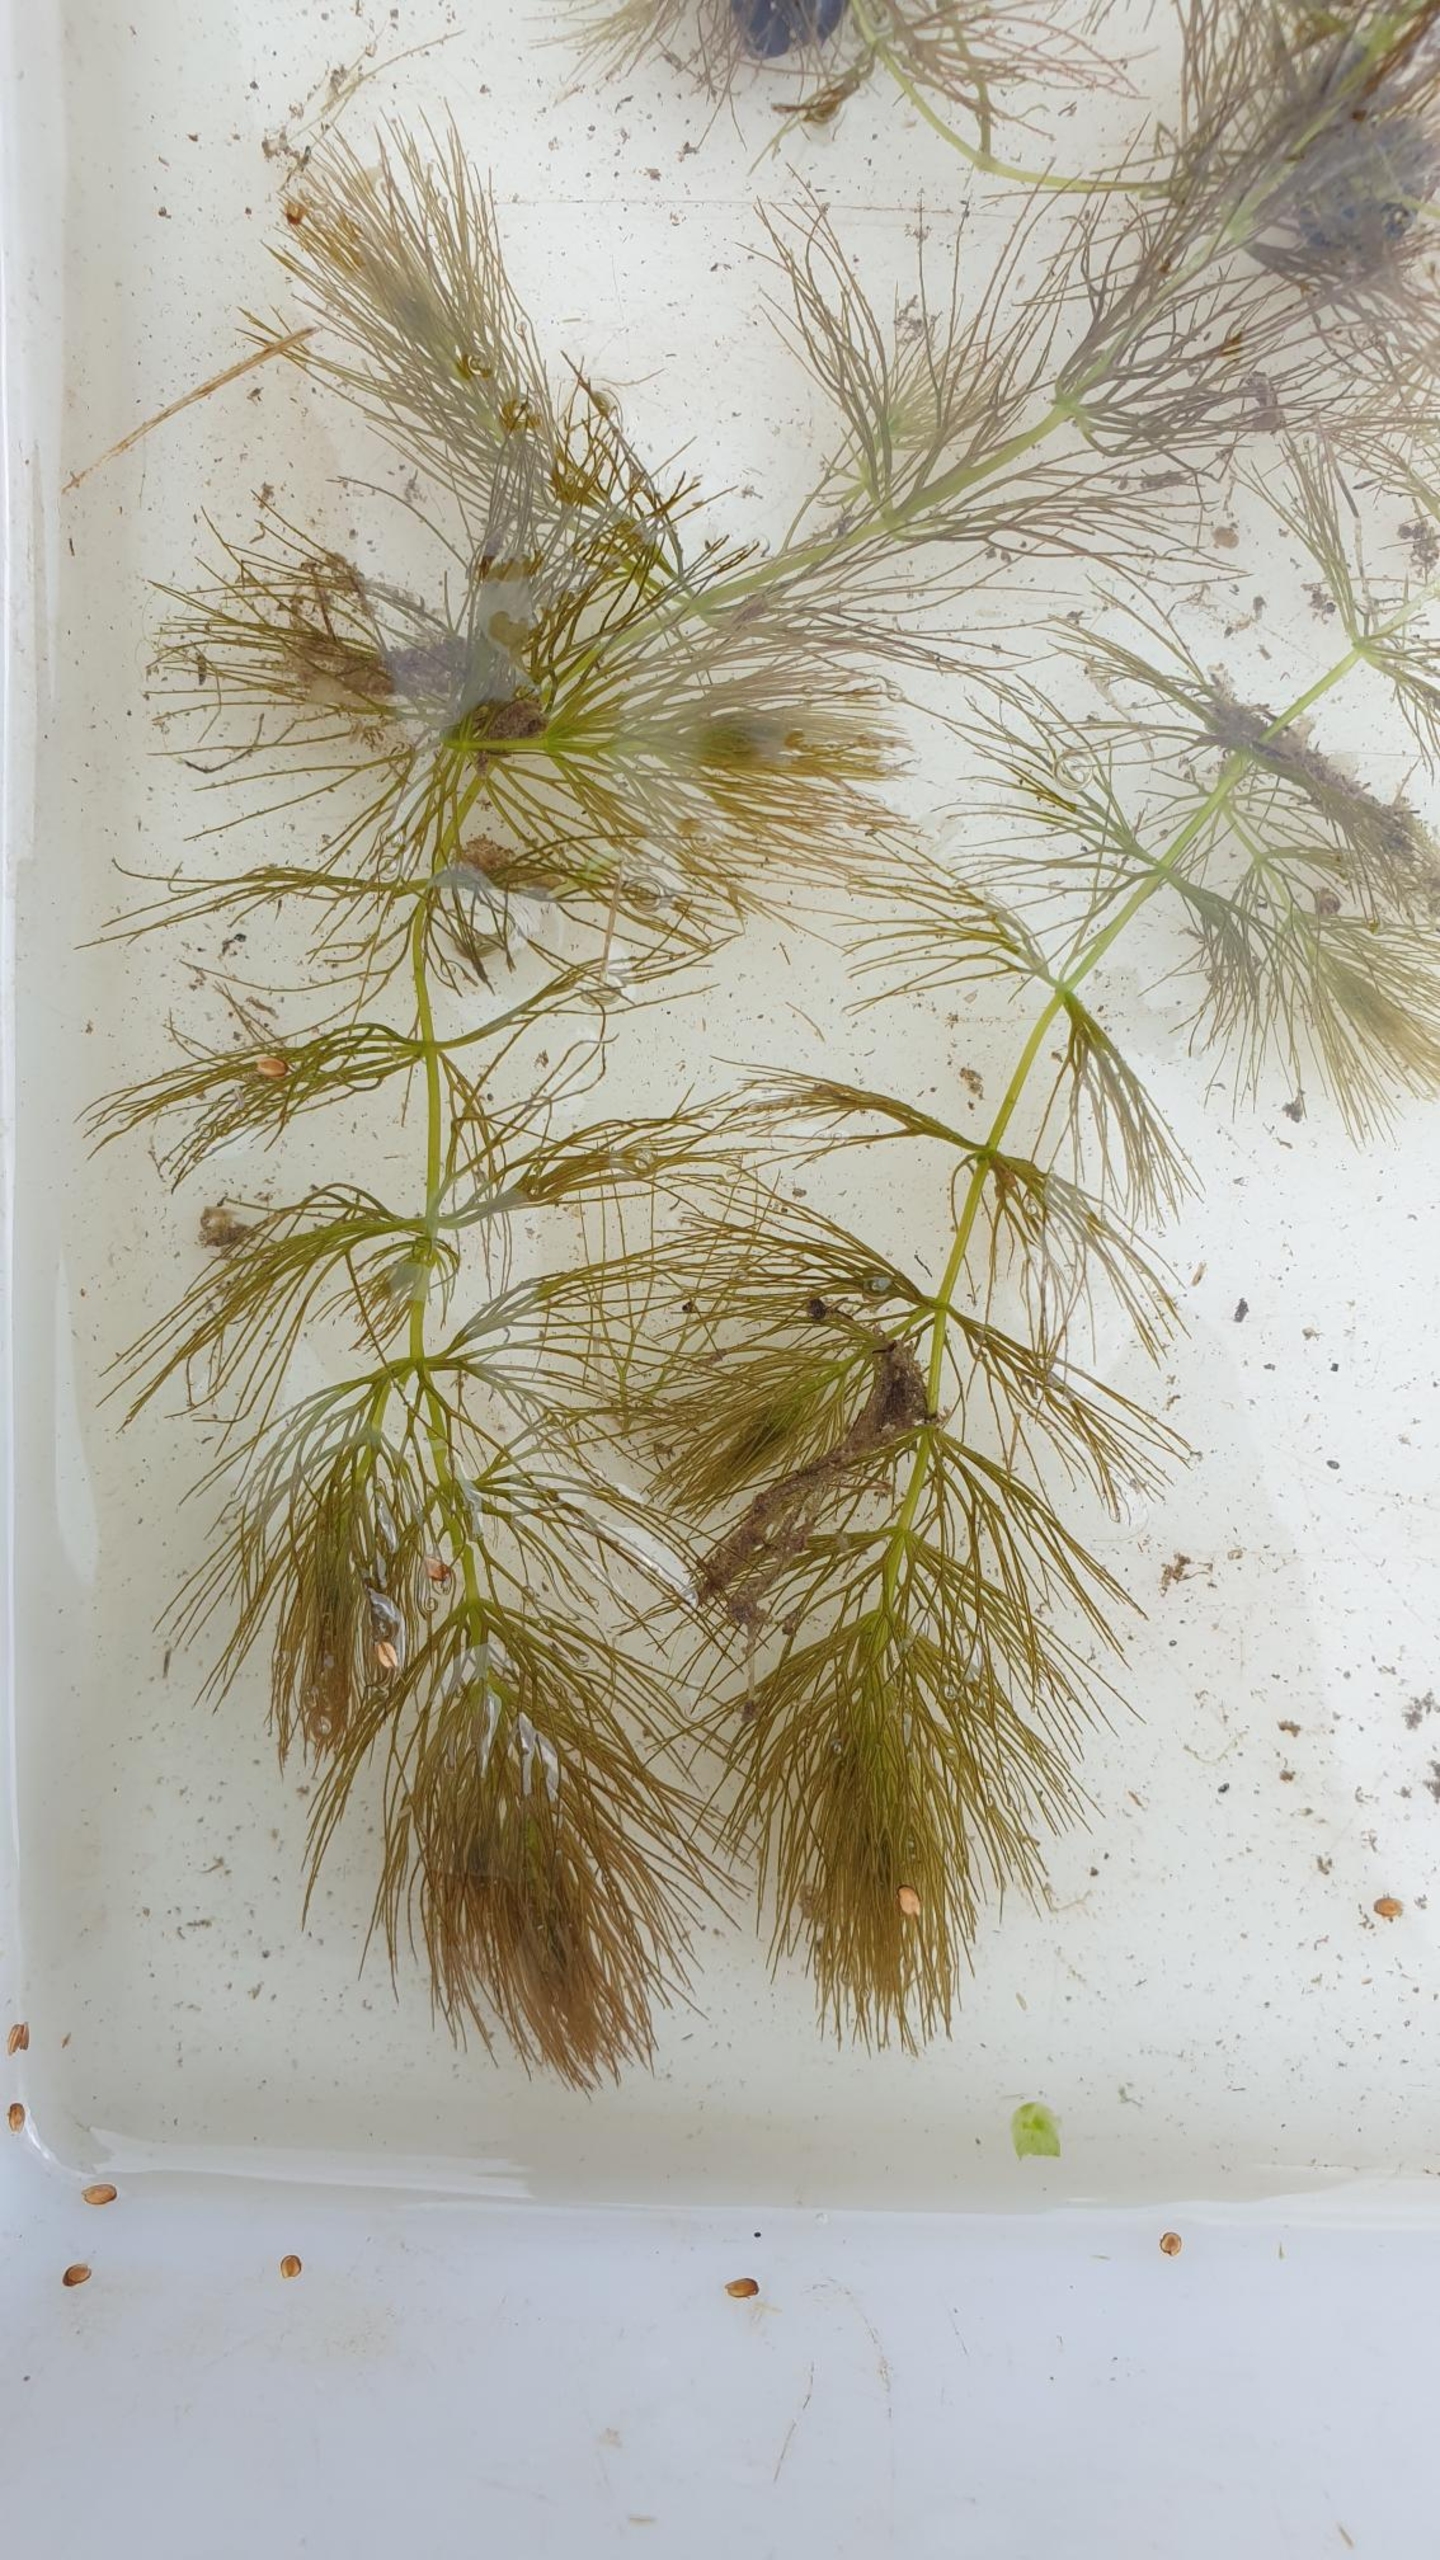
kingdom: Plantae
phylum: Tracheophyta
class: Magnoliopsida
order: Ceratophyllales
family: Ceratophyllaceae
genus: Ceratophyllum
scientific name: Ceratophyllum submersum
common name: Tornløs hornblad
